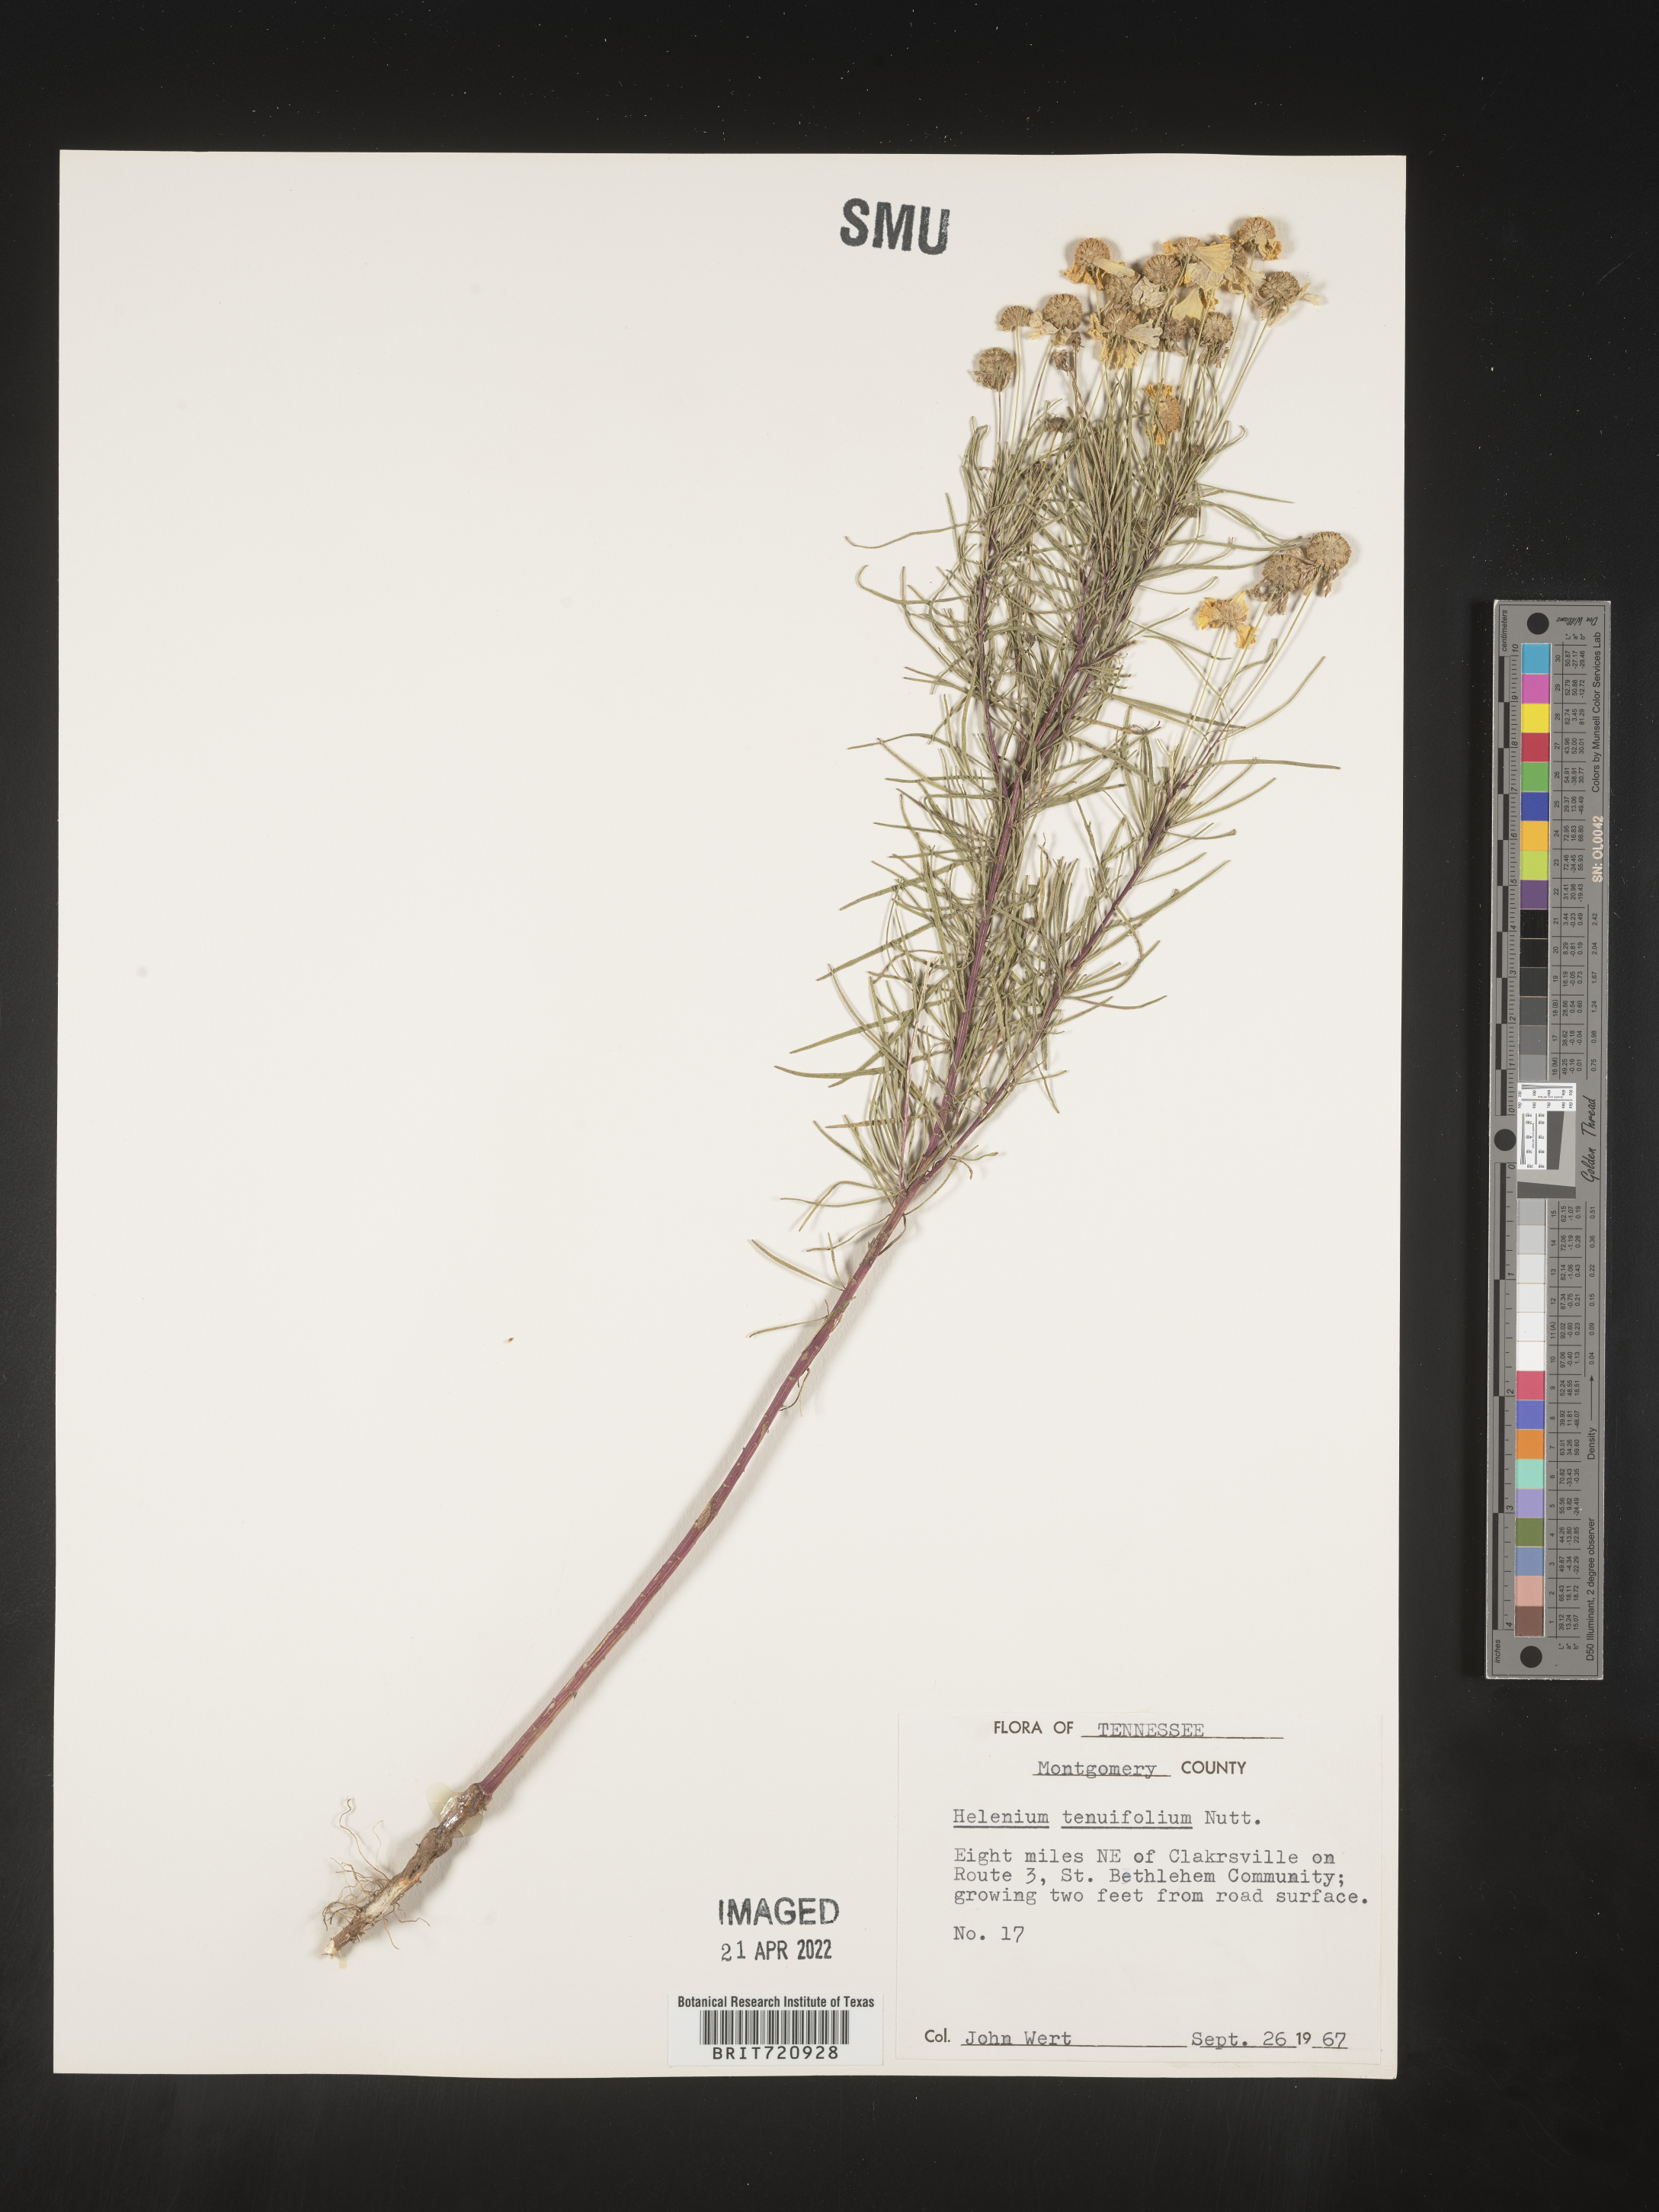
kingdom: Plantae
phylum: Tracheophyta
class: Magnoliopsida
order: Asterales
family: Asteraceae
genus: Helenium
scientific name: Helenium amarum
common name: Bitter sneezeweed
